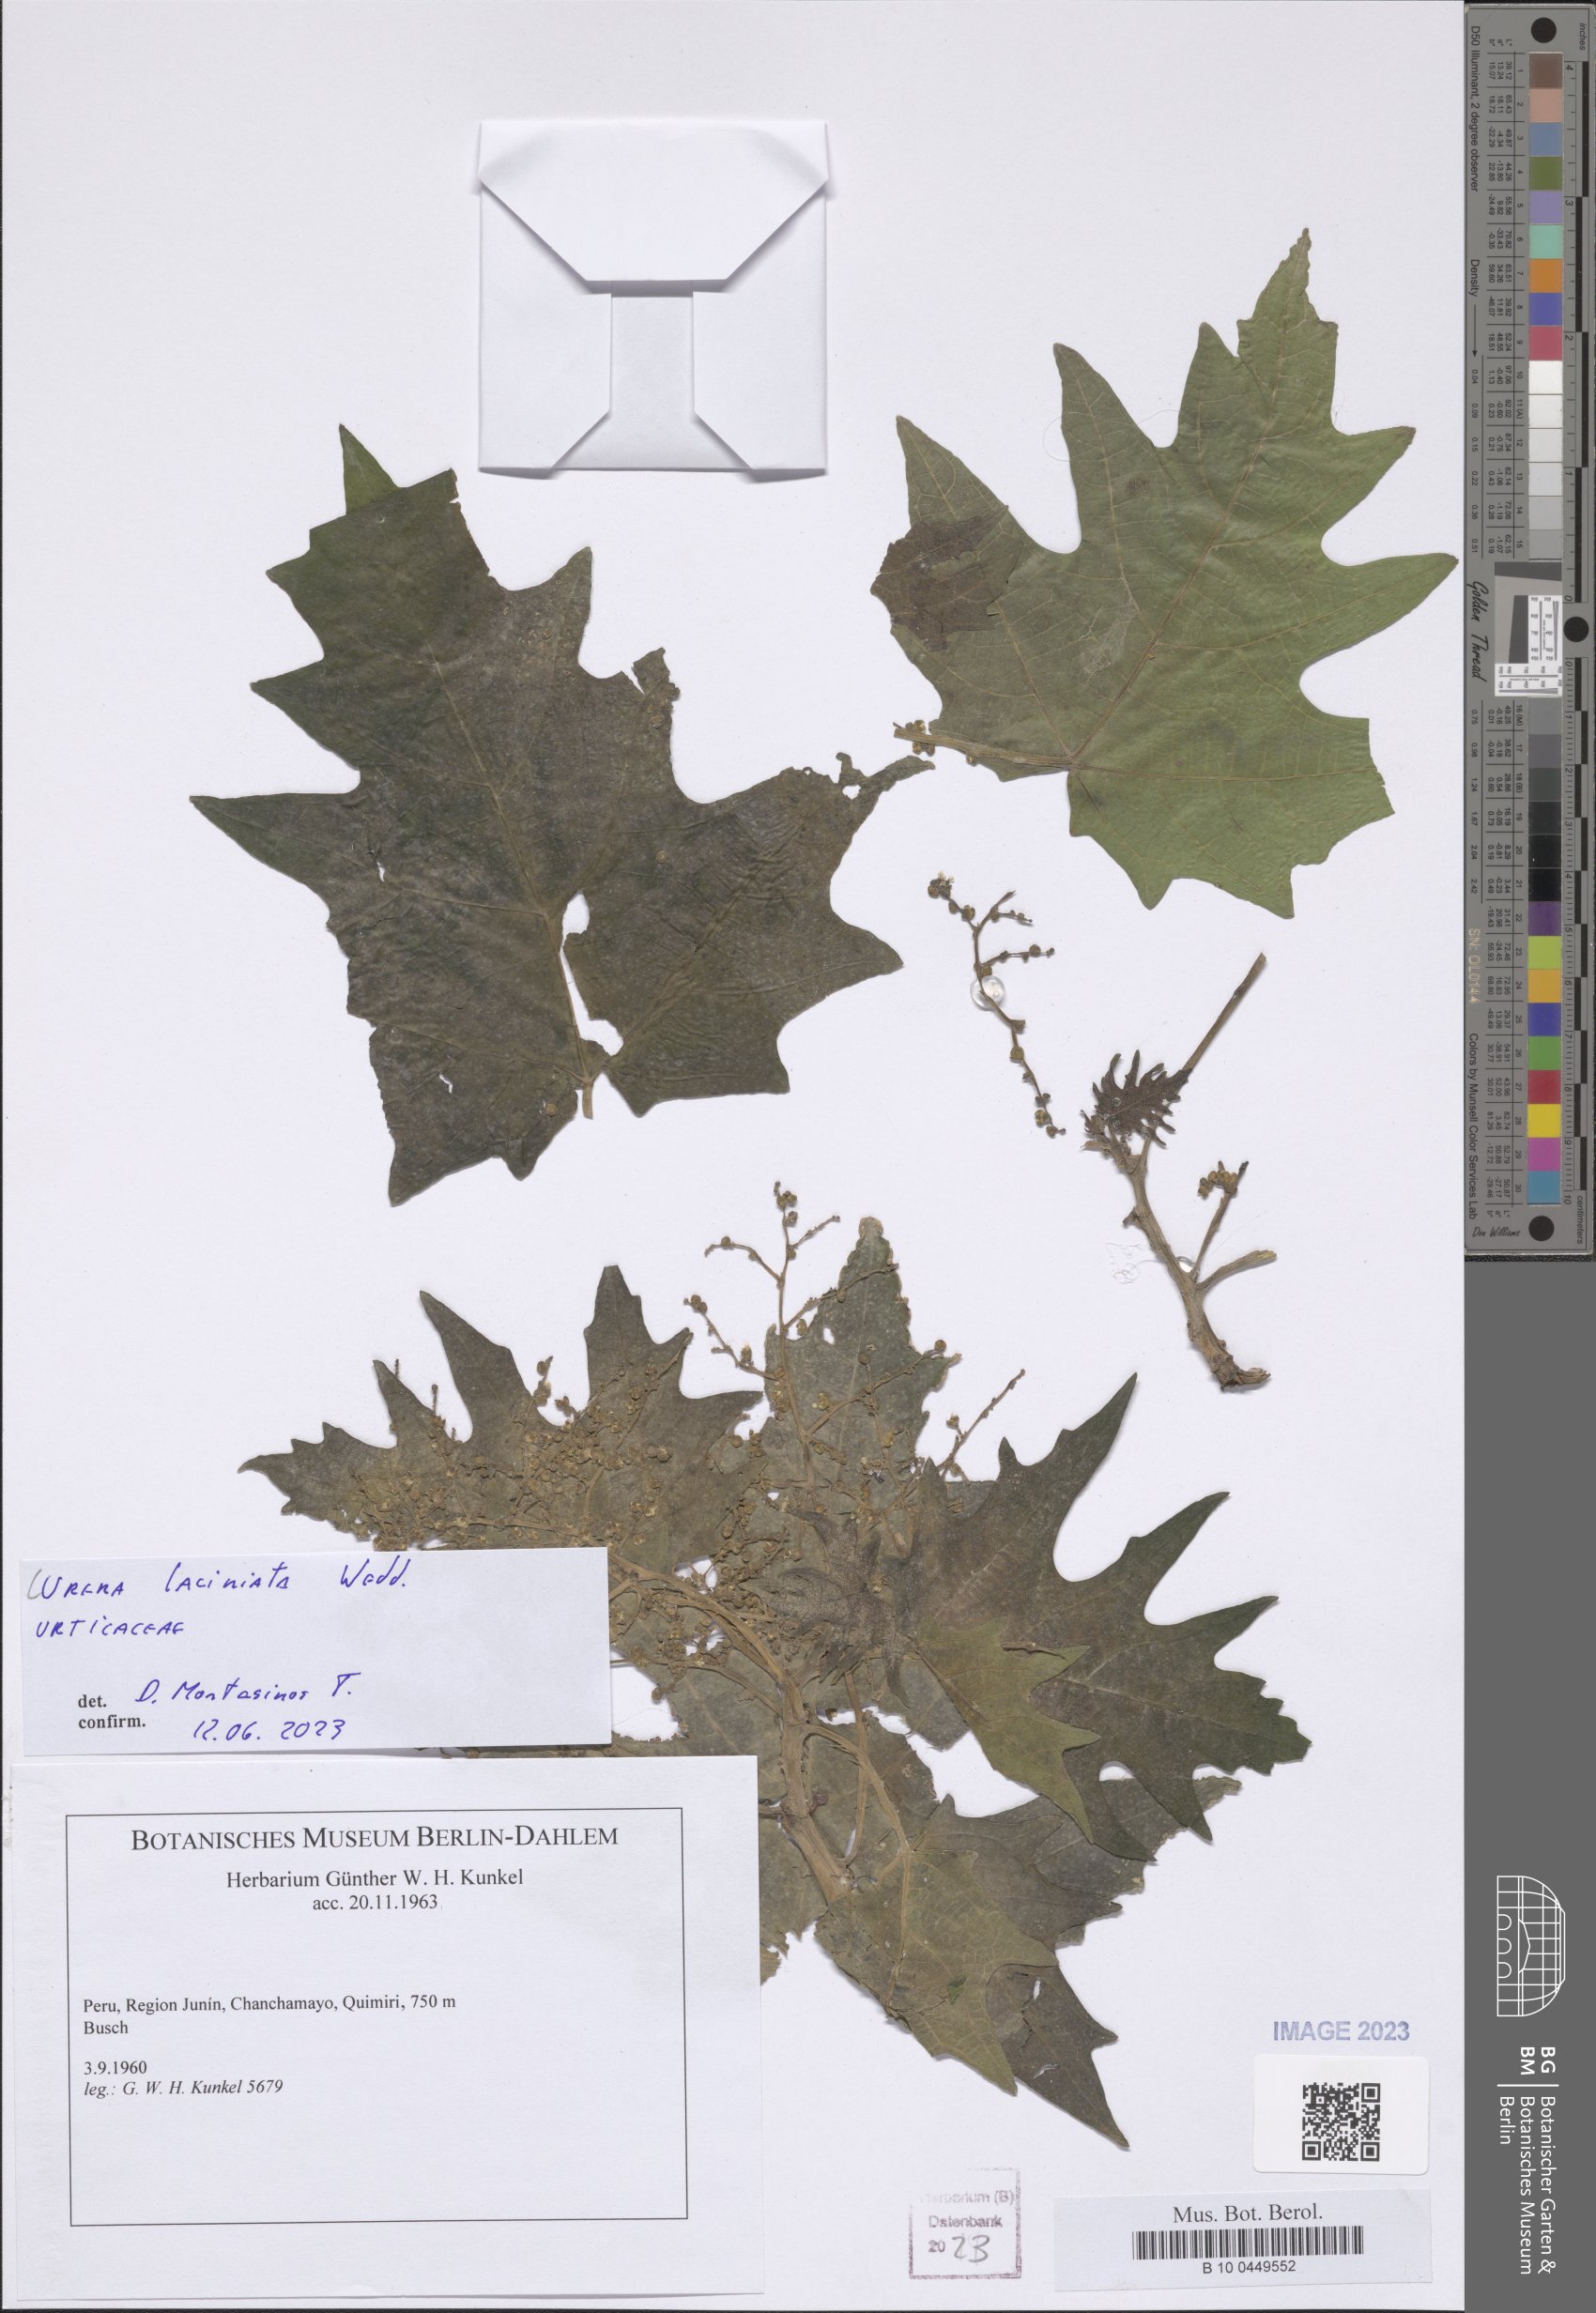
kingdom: Plantae
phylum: Tracheophyta
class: Magnoliopsida
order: Rosales
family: Urticaceae
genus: Urera
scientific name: Urera laciniata
